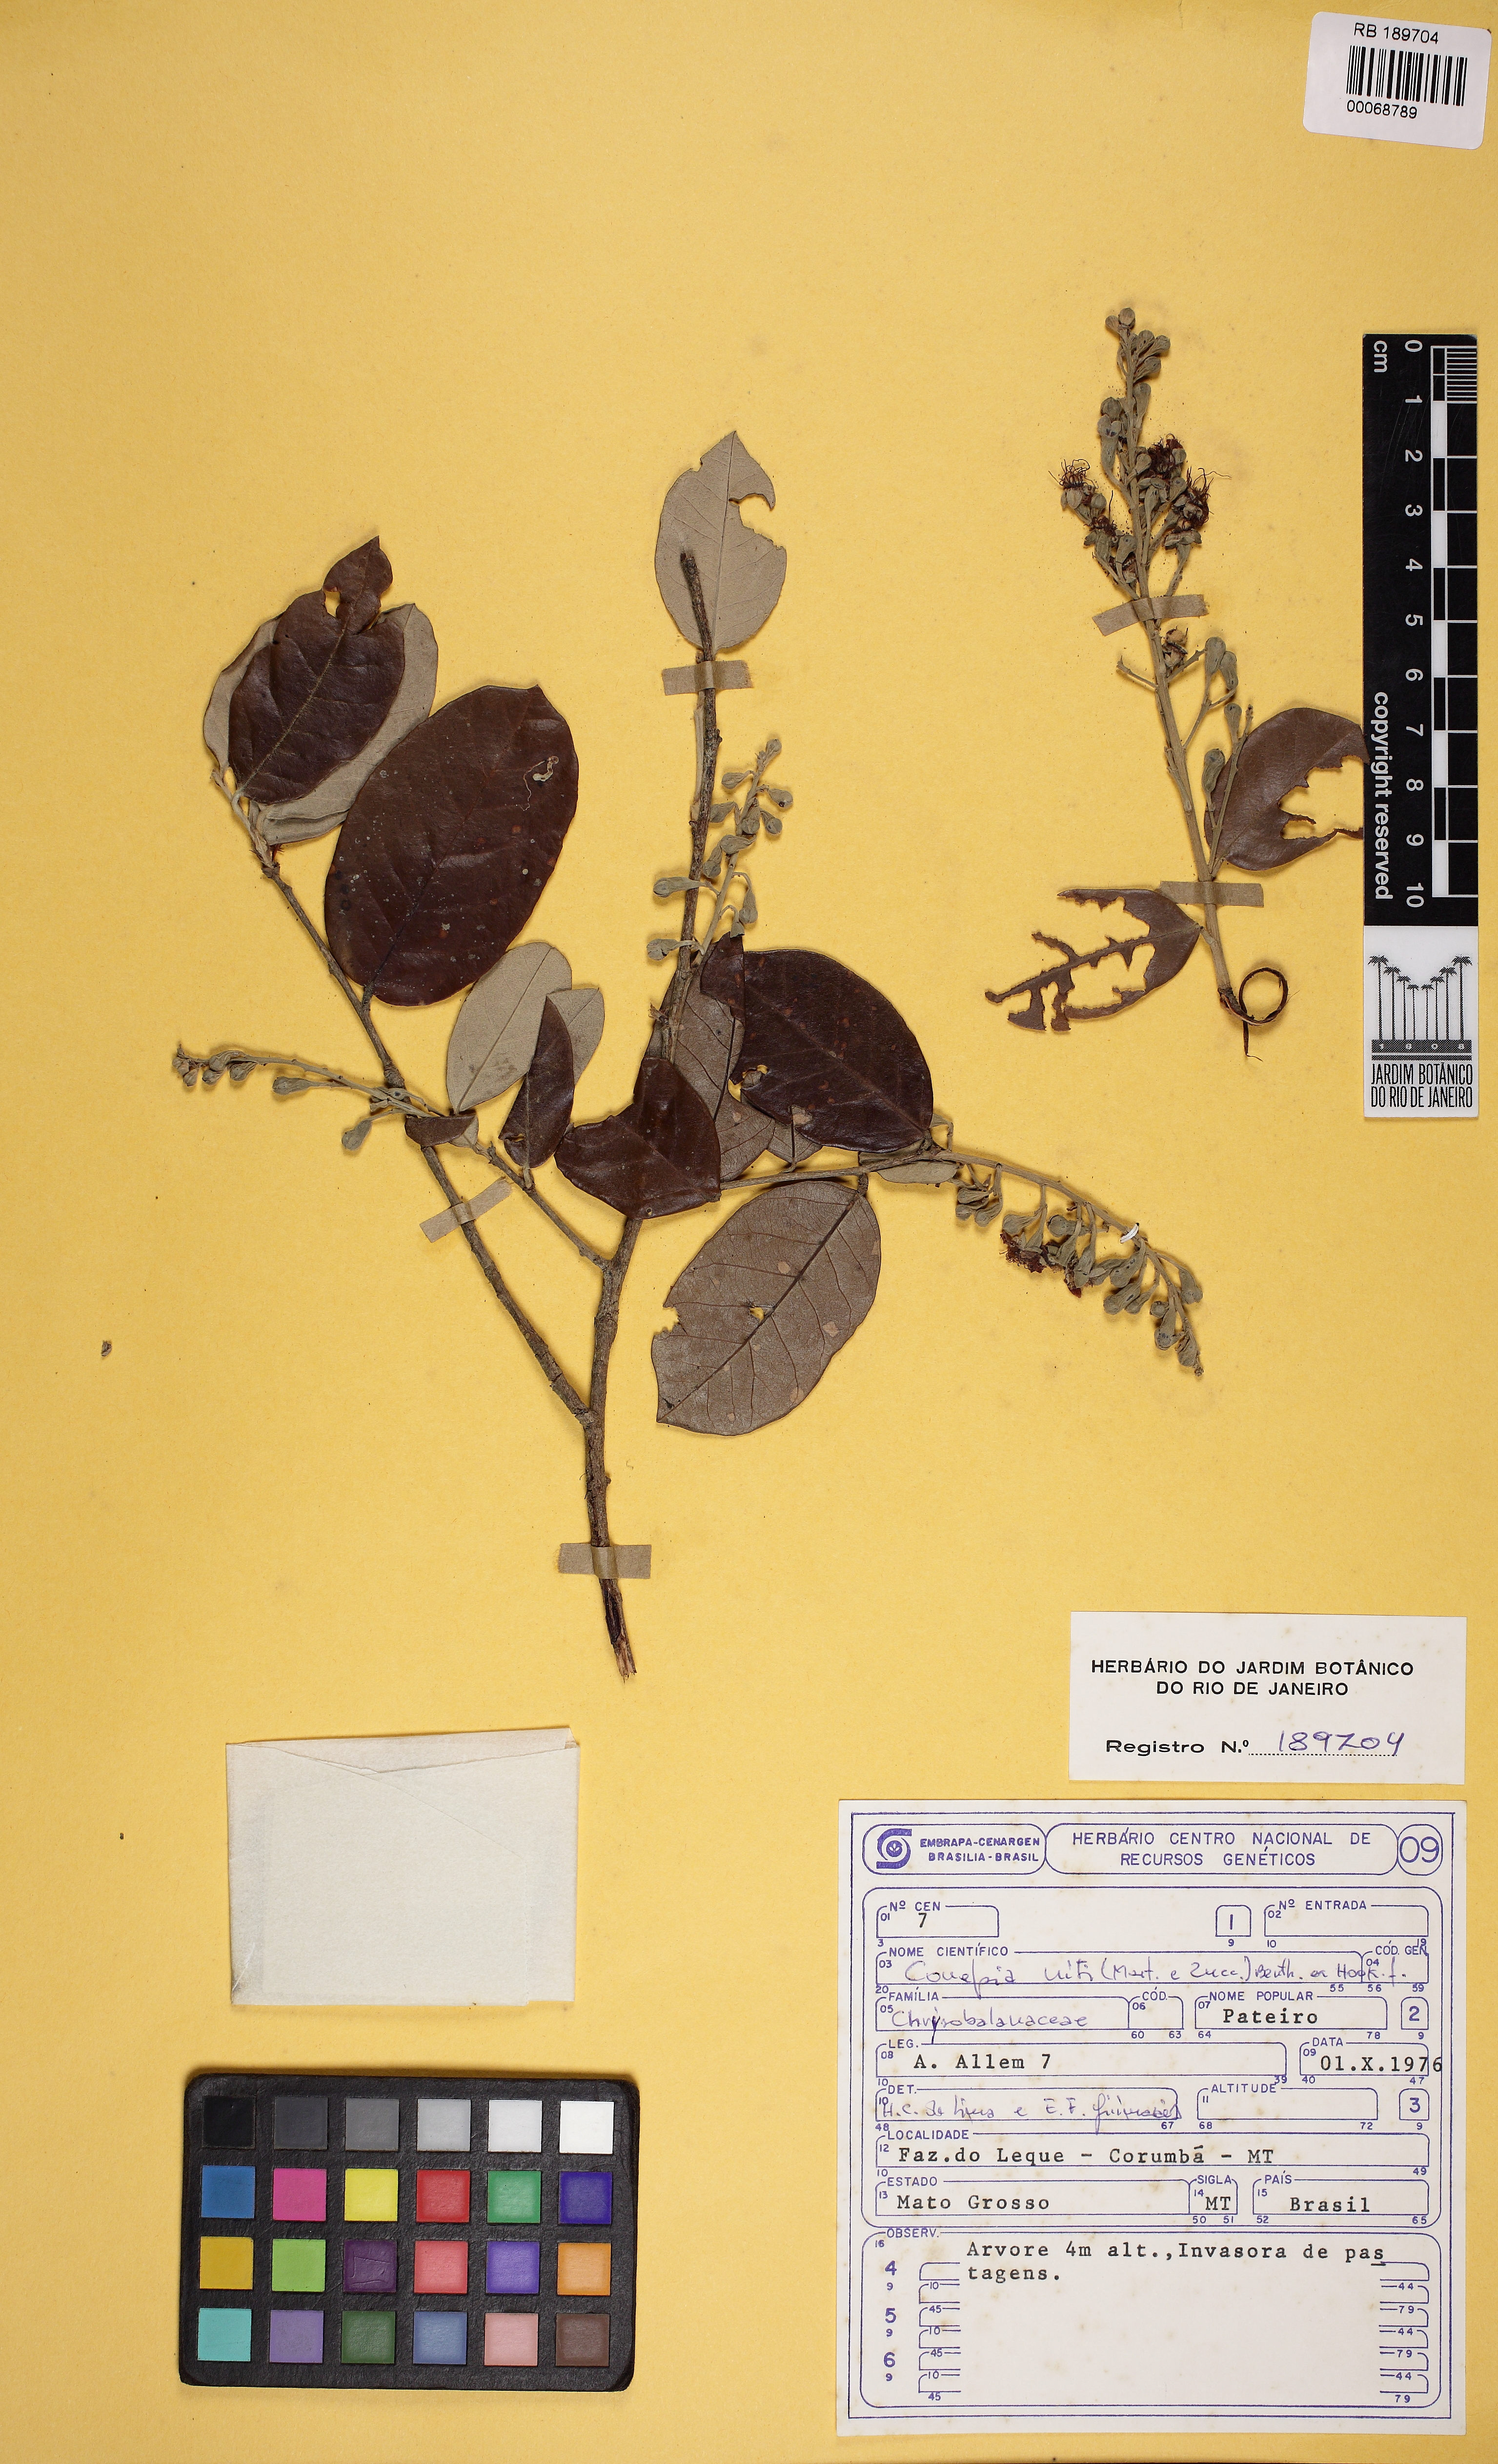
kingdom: Plantae
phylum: Tracheophyta
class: Magnoliopsida
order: Malpighiales
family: Chrysobalanaceae
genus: Couepia
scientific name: Couepia uiti
